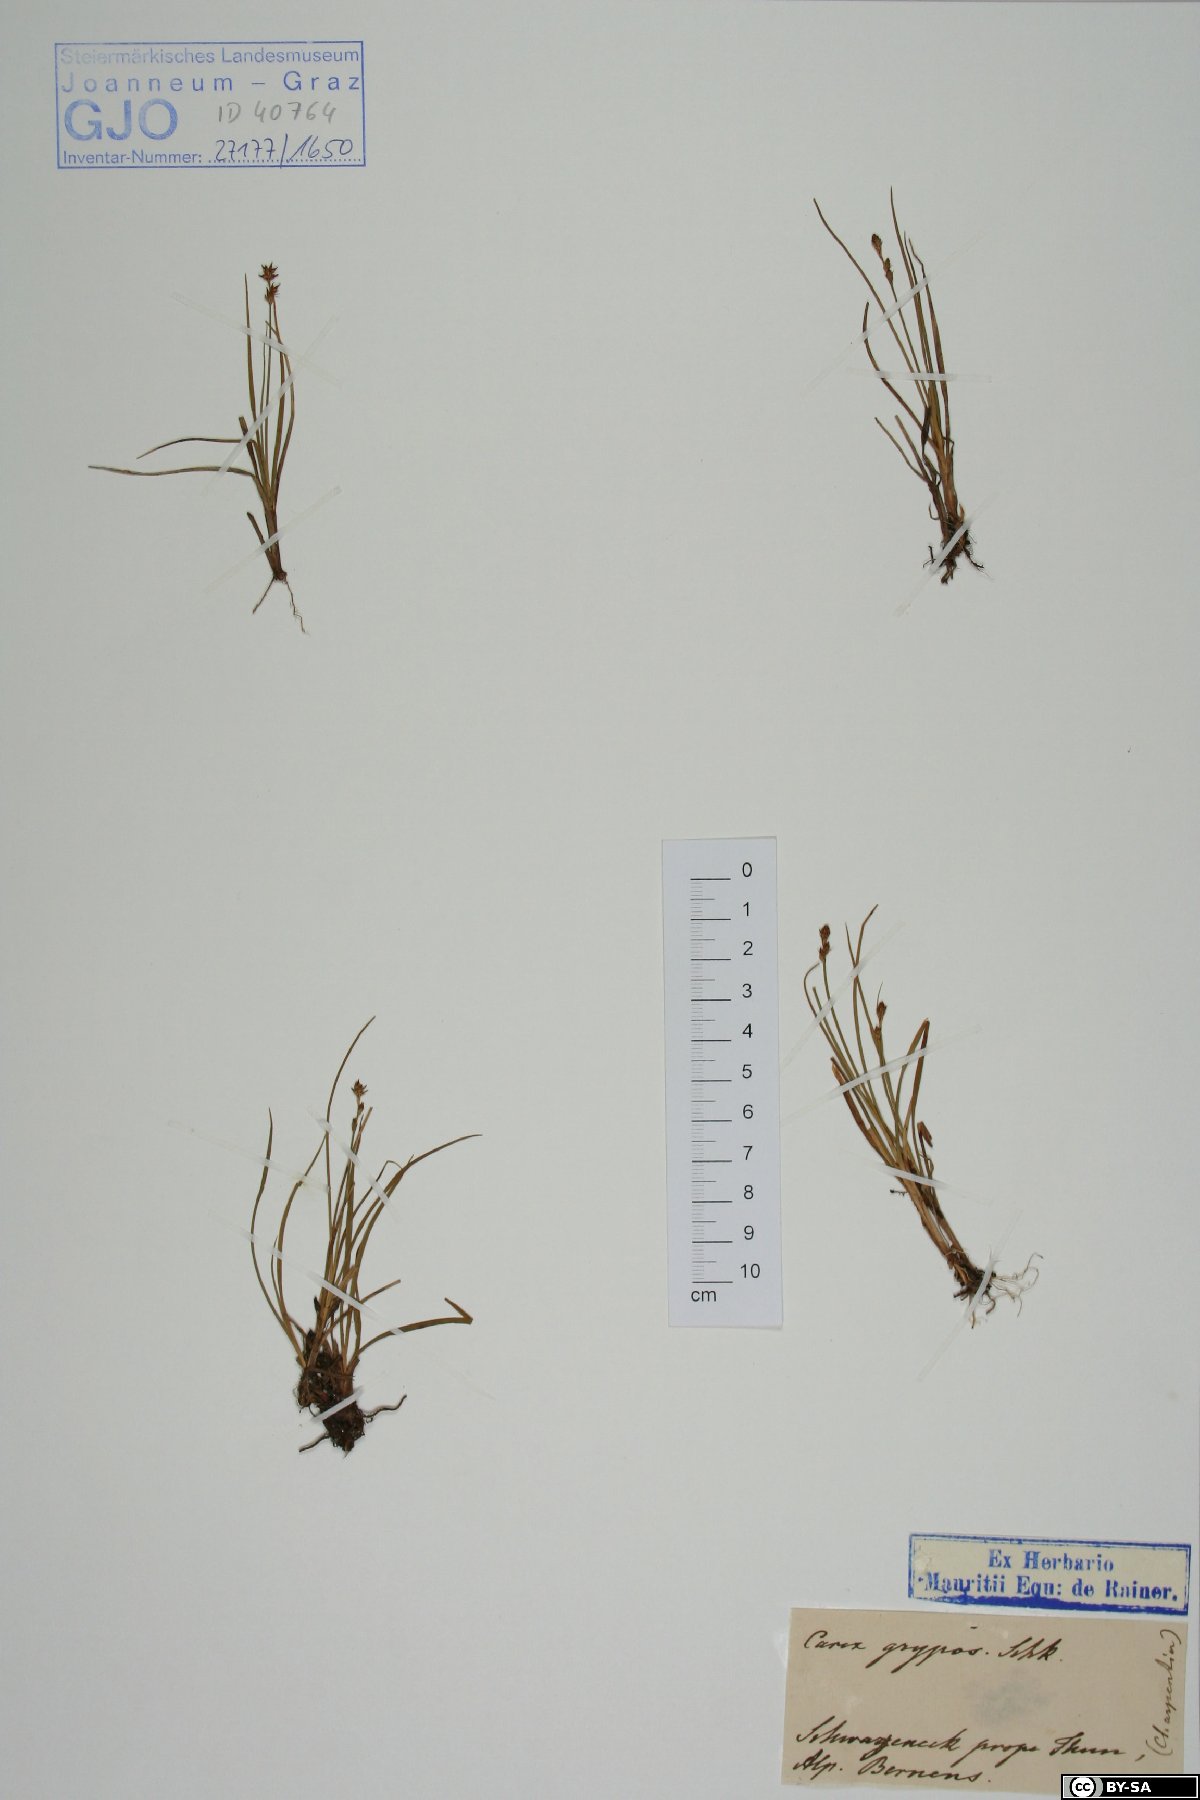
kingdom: Plantae
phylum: Tracheophyta
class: Liliopsida
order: Poales
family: Cyperaceae
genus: Carex
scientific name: Carex echinata
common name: Star sedge
